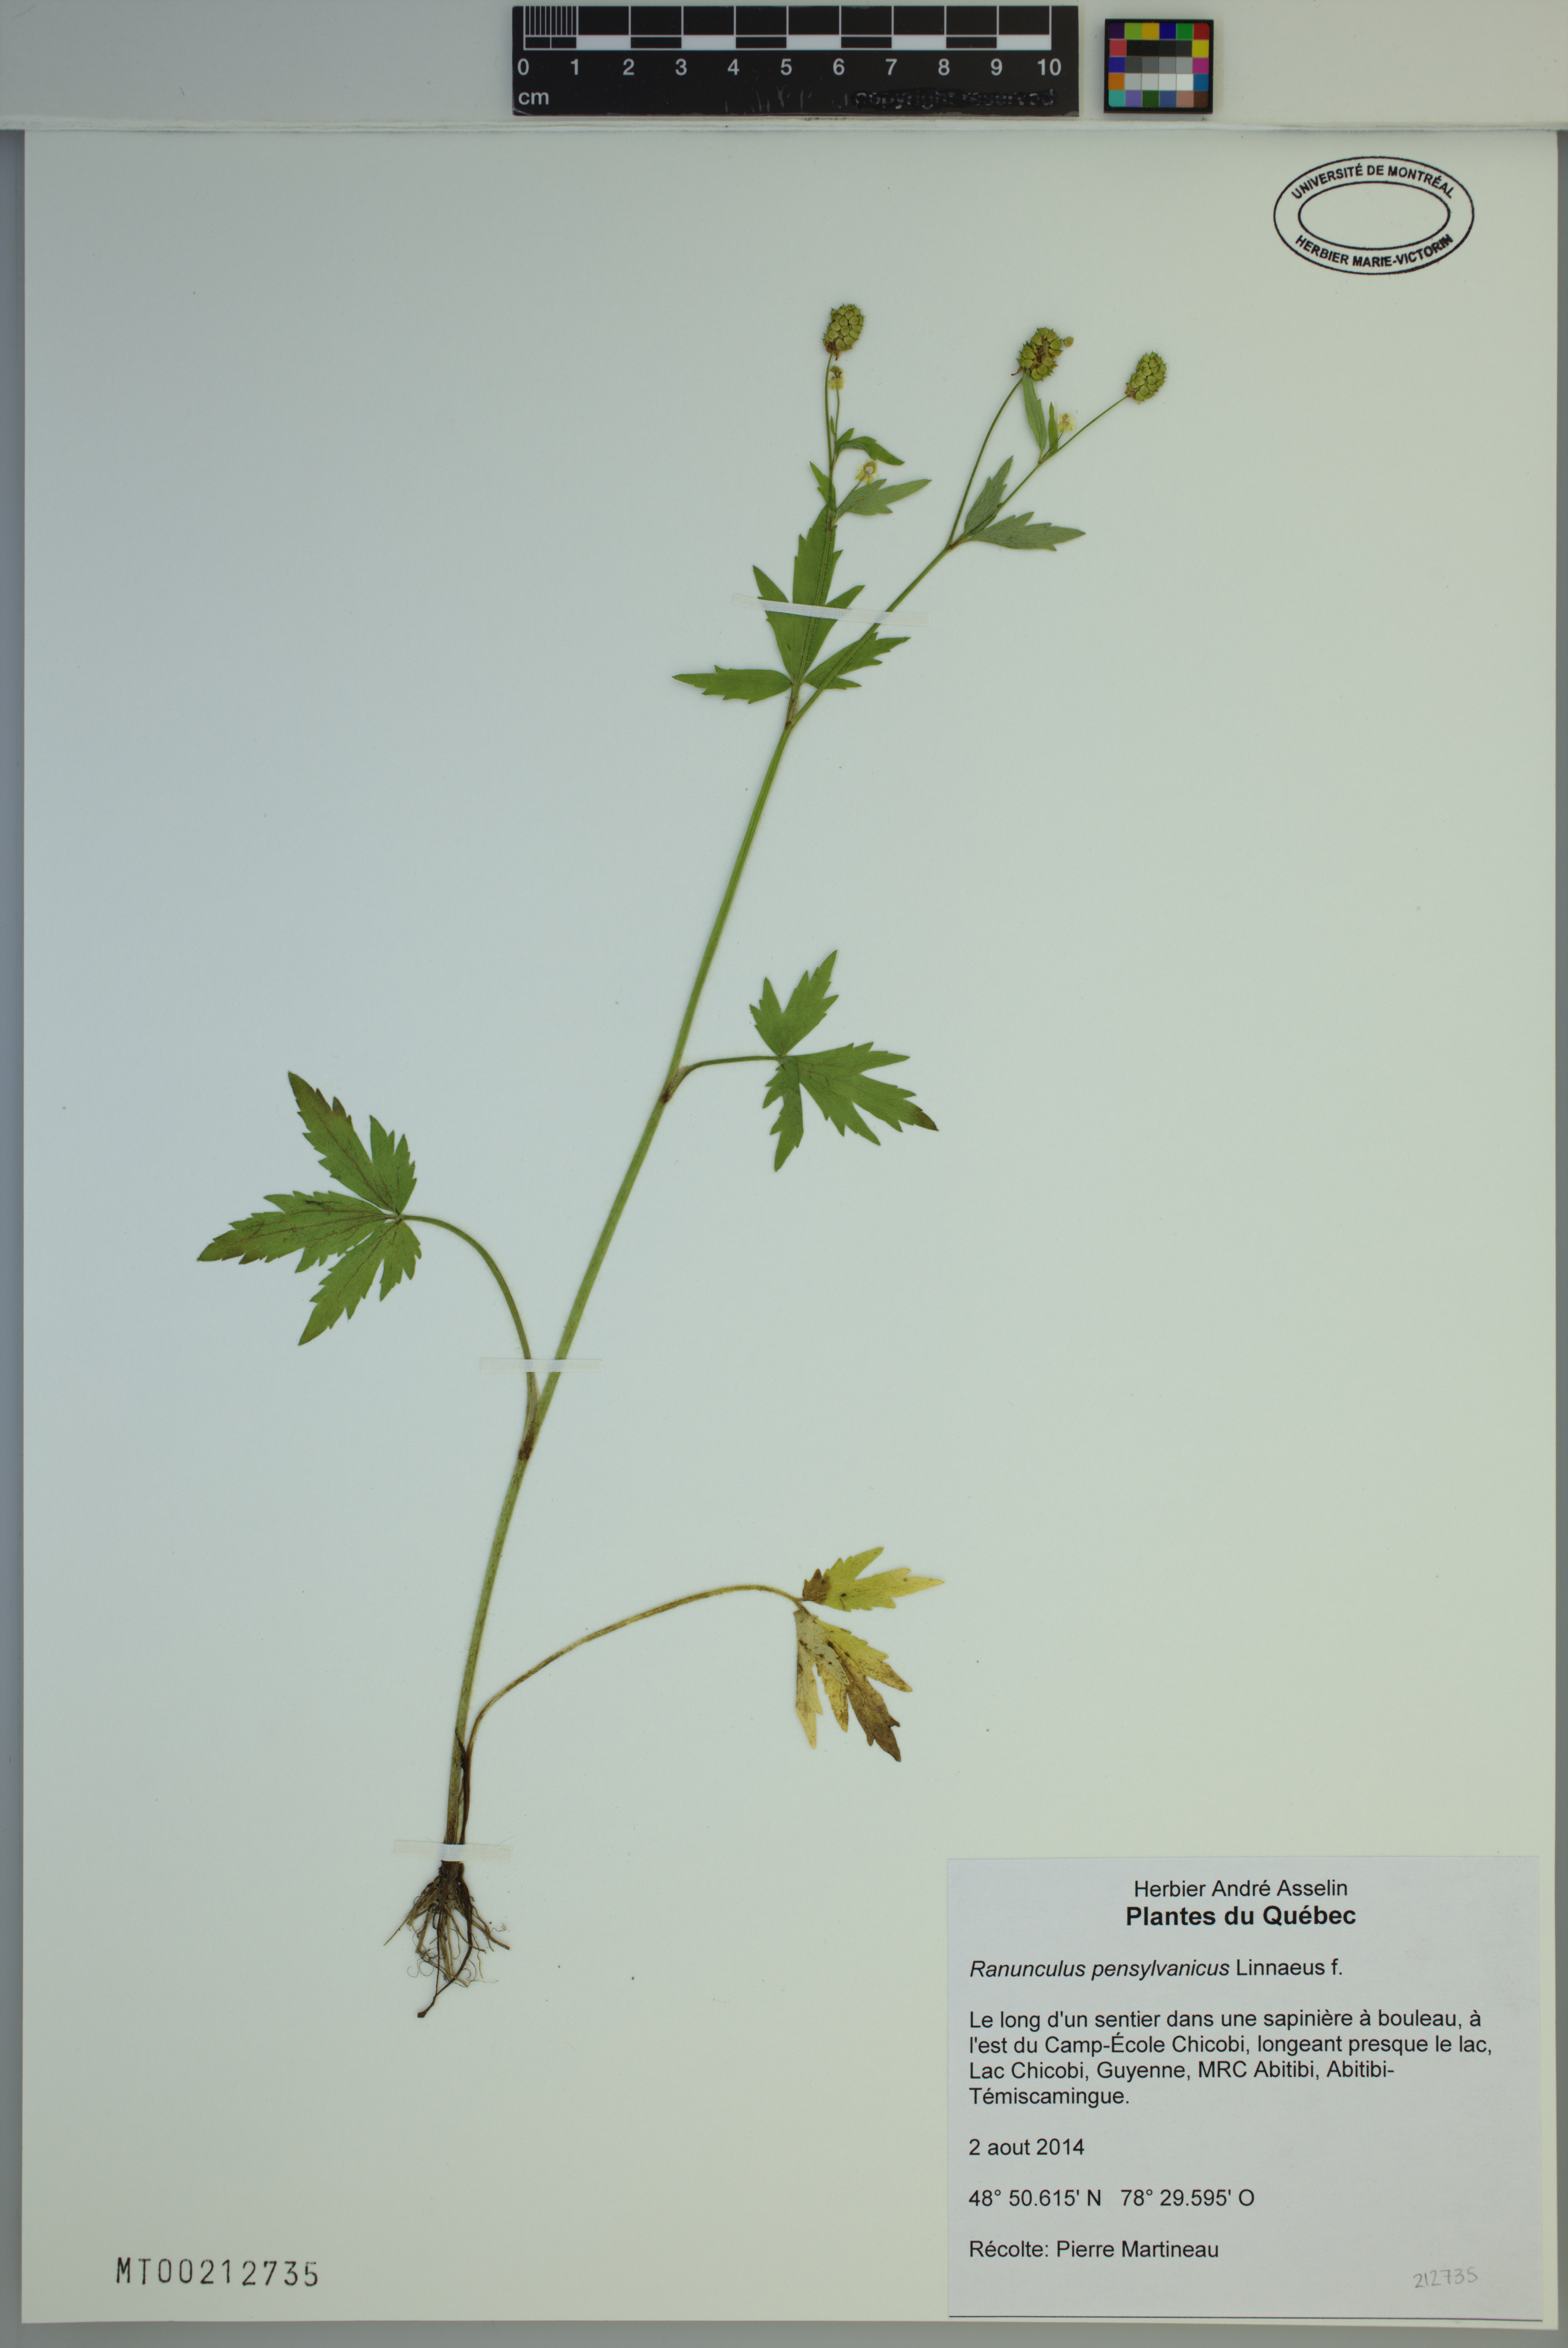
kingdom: Plantae
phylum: Tracheophyta
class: Magnoliopsida
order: Ranunculales
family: Ranunculaceae
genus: Ranunculus
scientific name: Ranunculus pensylvanicus
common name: Bristly buttercup
